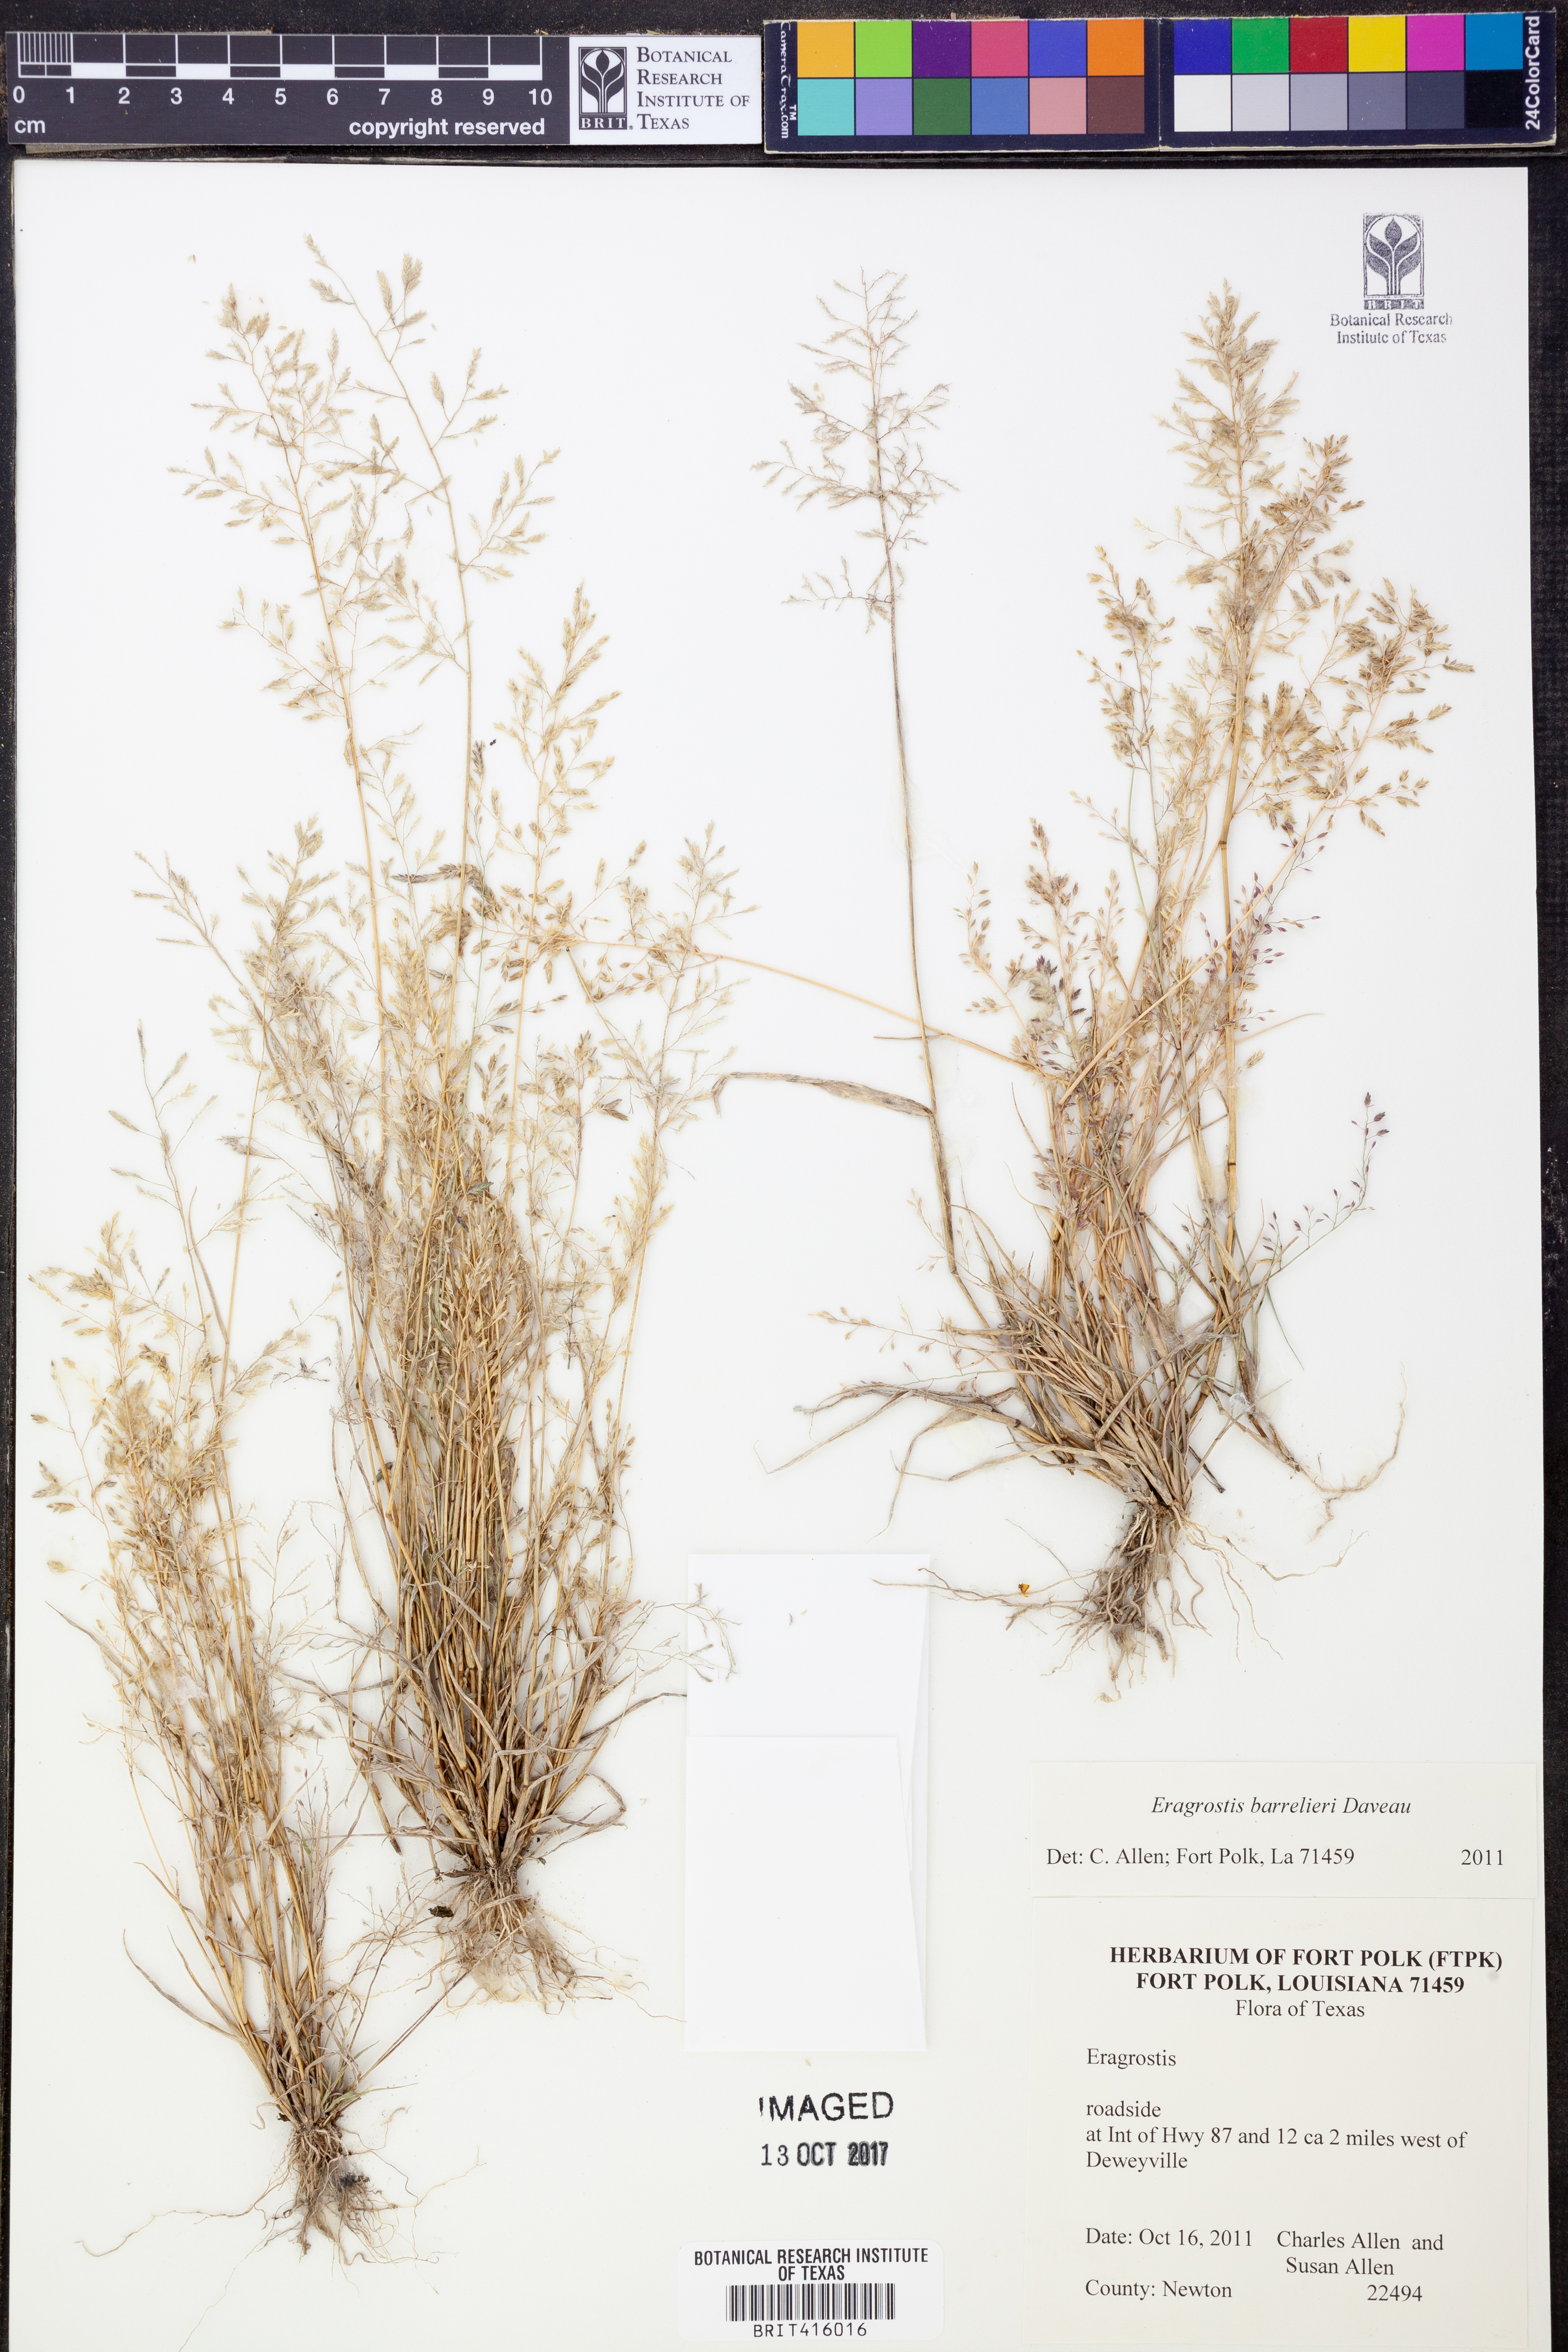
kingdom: Plantae
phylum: Tracheophyta
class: Liliopsida
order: Poales
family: Poaceae
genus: Eragrostis
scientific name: Eragrostis barrelieri
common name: Mediterranean lovegrass
